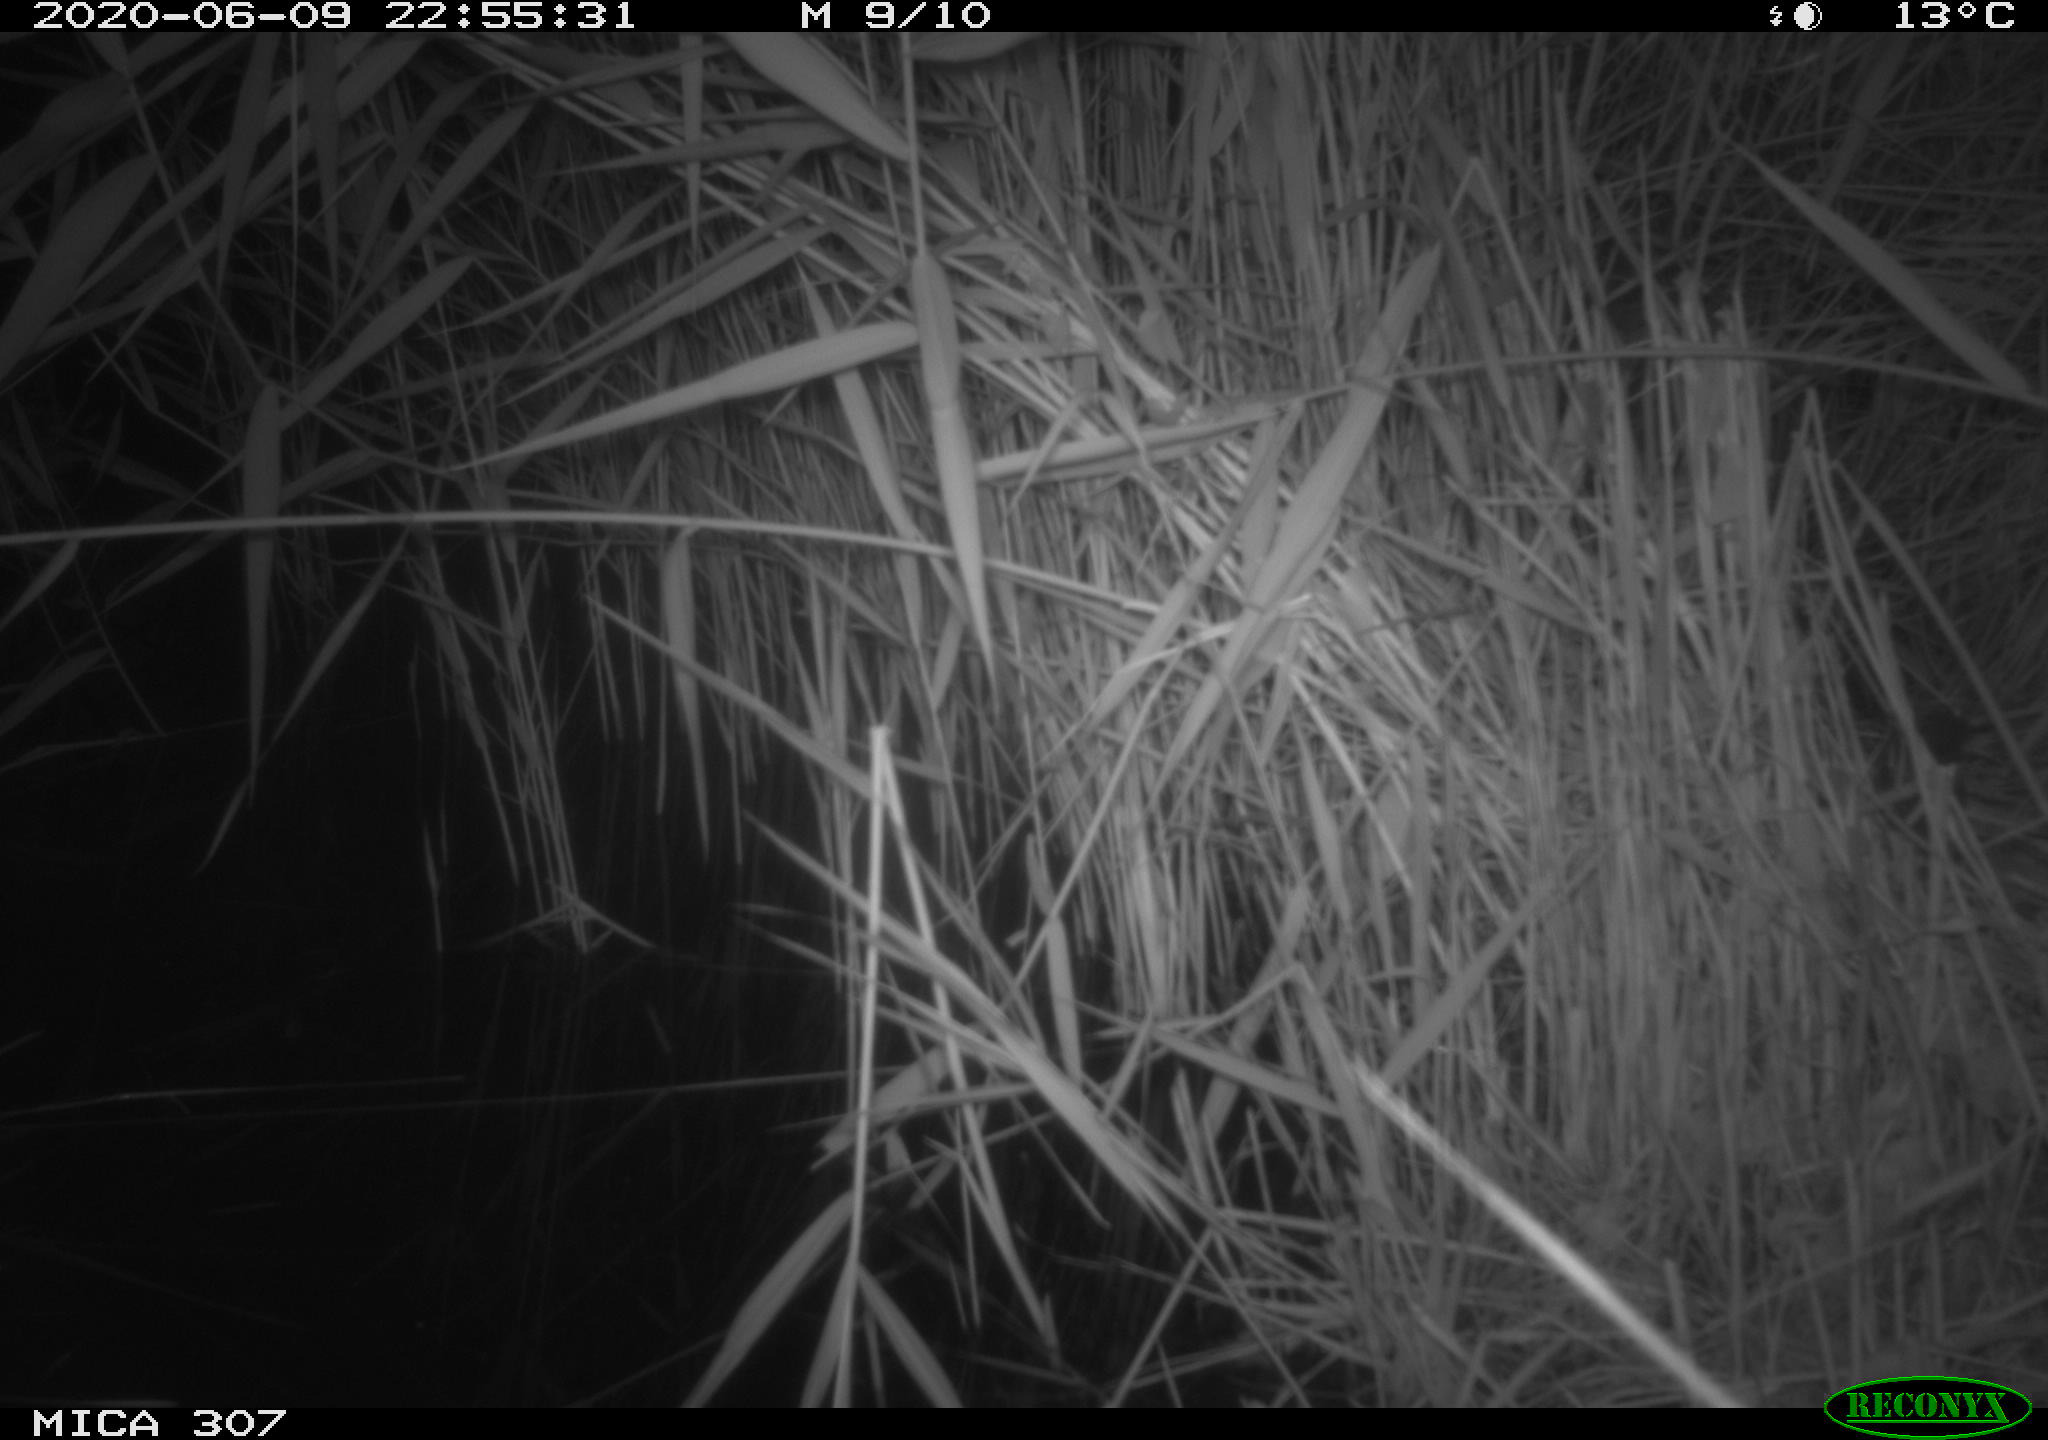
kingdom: Animalia
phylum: Chordata
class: Mammalia
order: Rodentia
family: Muridae
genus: Rattus
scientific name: Rattus norvegicus
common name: Brown rat
